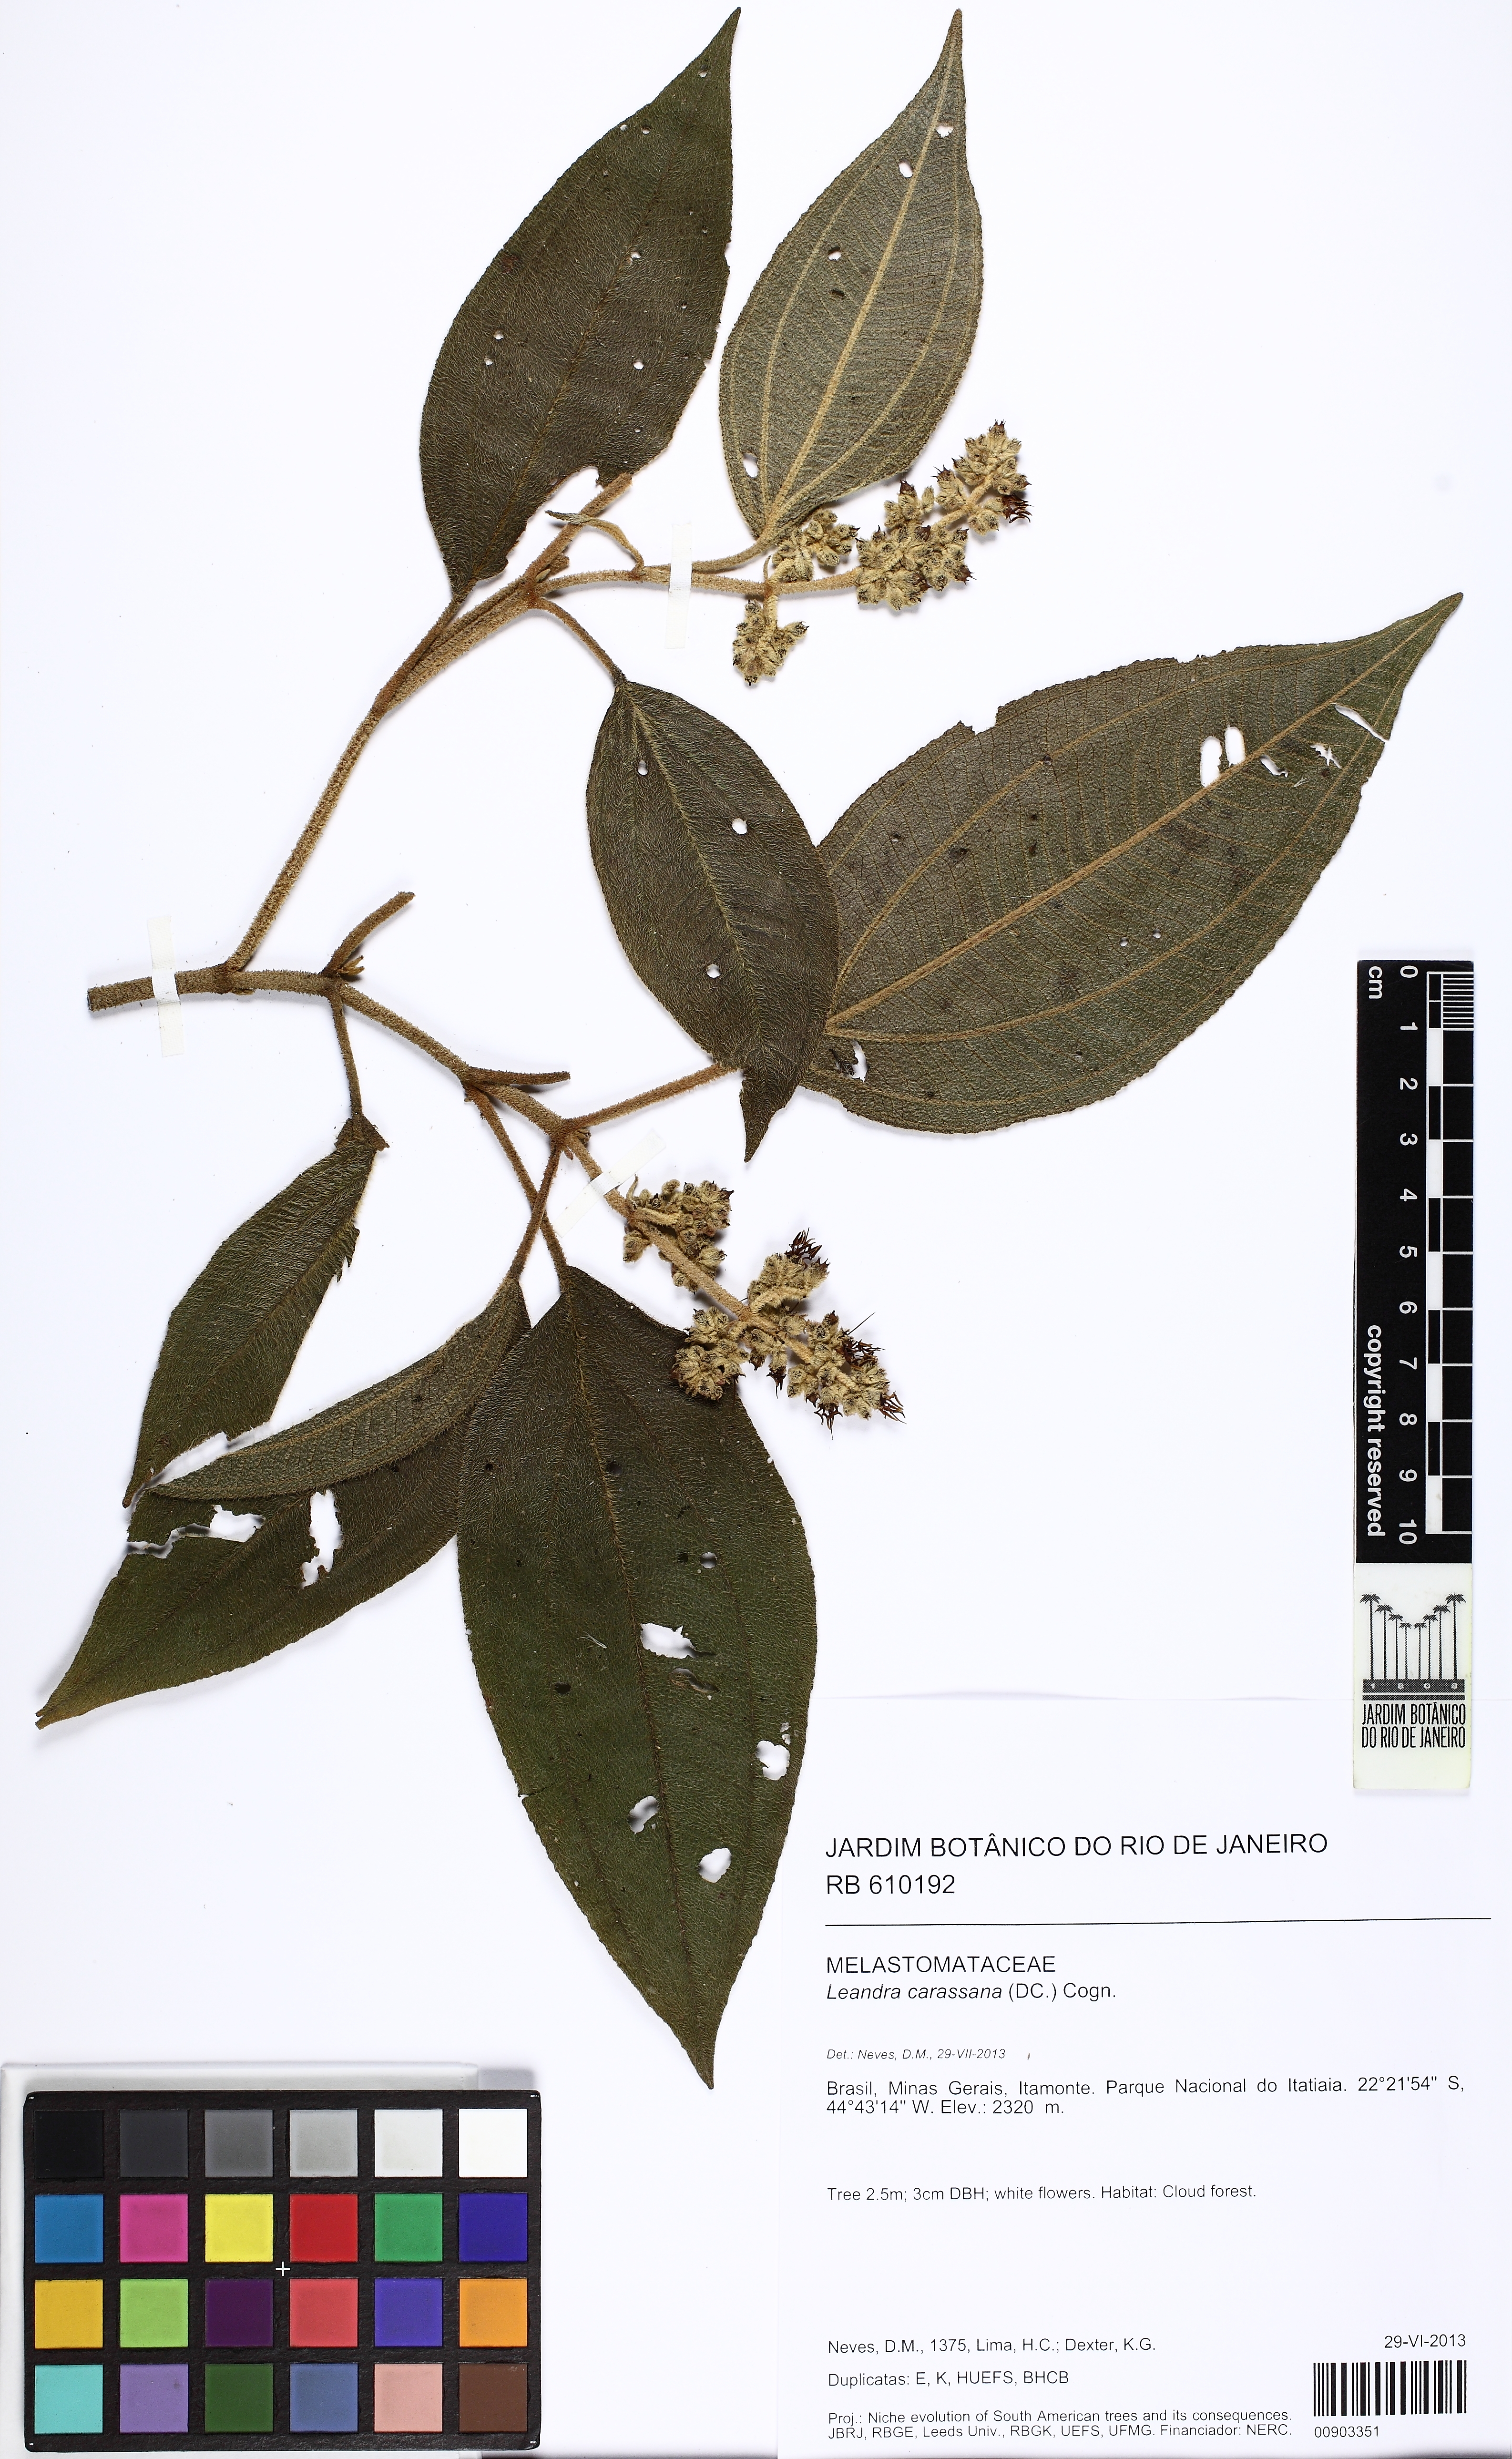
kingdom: Plantae
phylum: Tracheophyta
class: Magnoliopsida
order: Myrtales
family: Melastomataceae
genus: Miconia
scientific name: Miconia sublanata
